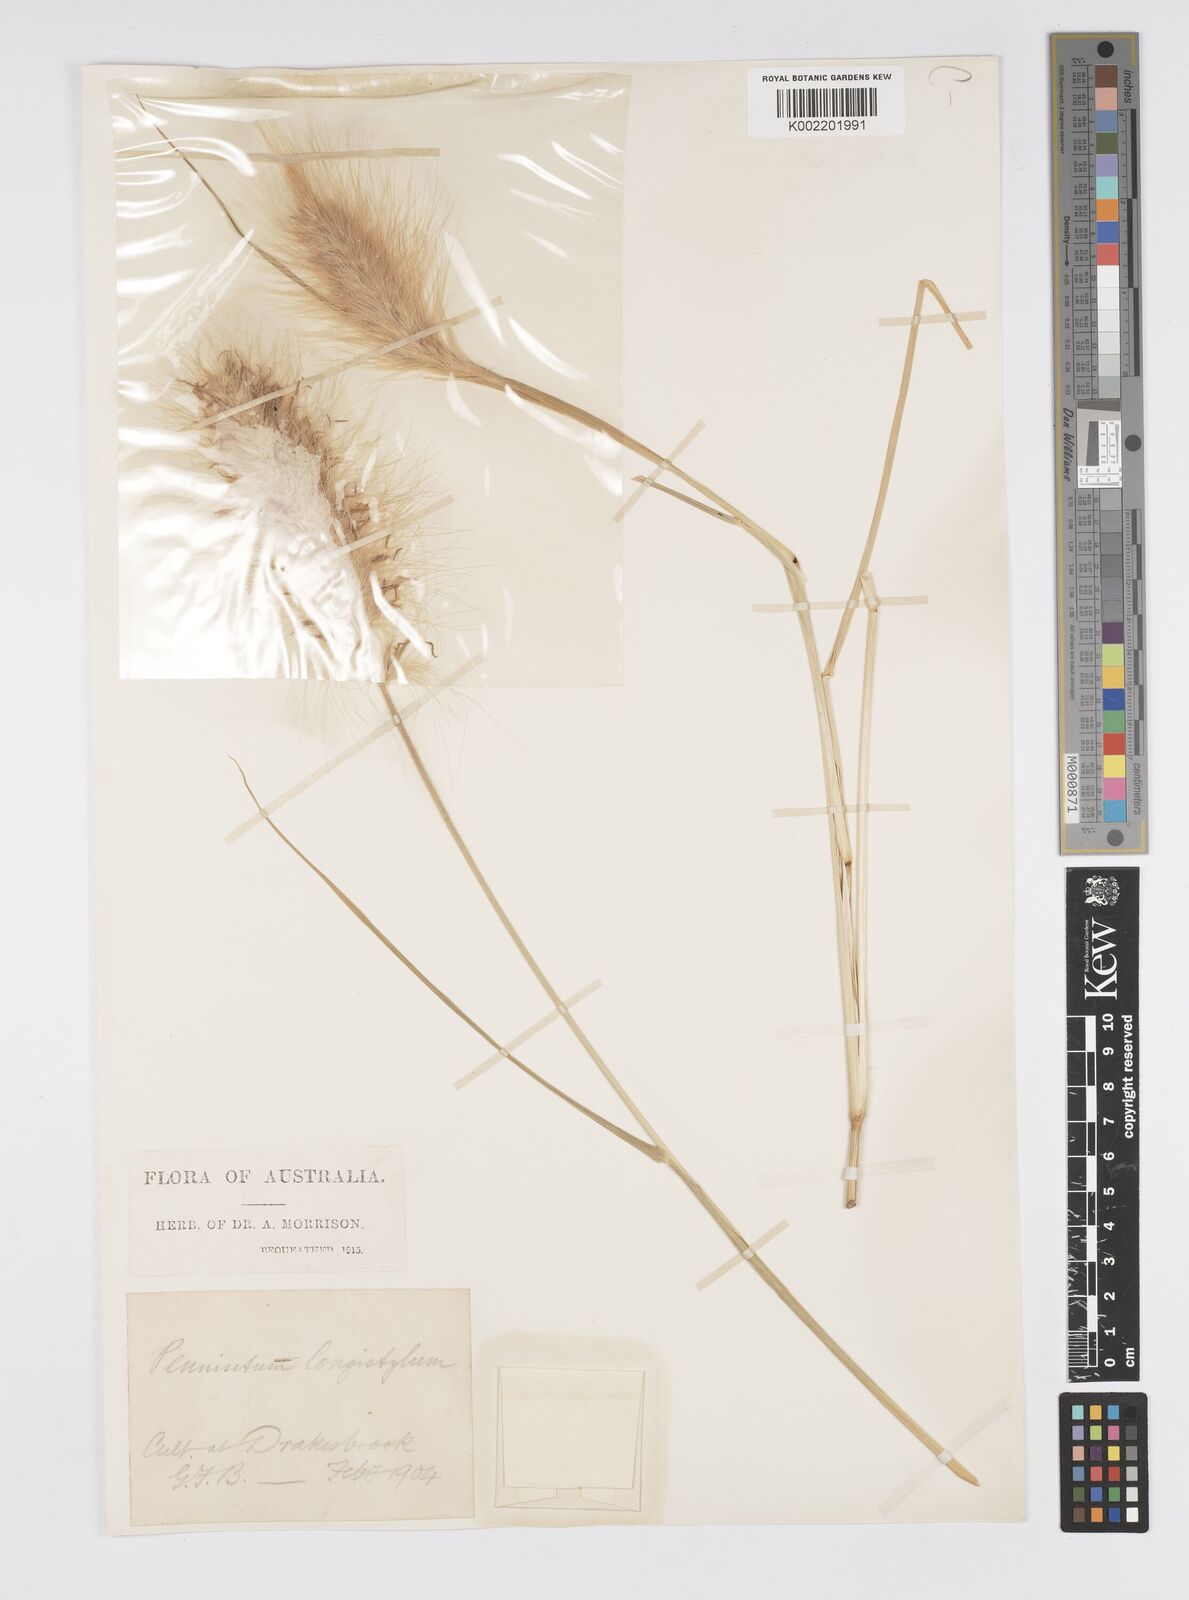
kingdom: Plantae
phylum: Tracheophyta
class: Liliopsida
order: Poales
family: Poaceae
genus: Cenchrus
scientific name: Cenchrus longisetus
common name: Feathertop
